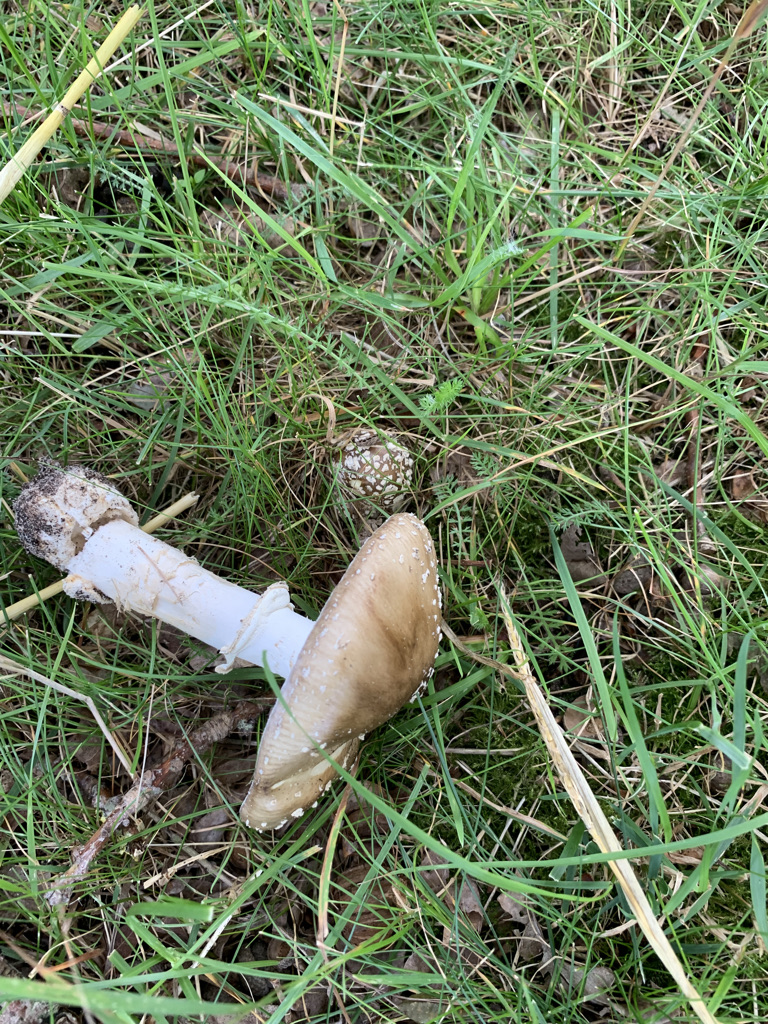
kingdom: Fungi
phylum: Basidiomycota
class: Agaricomycetes
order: Agaricales
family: Amanitaceae
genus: Amanita
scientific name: Amanita pantherina
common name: panter-fluesvamp
